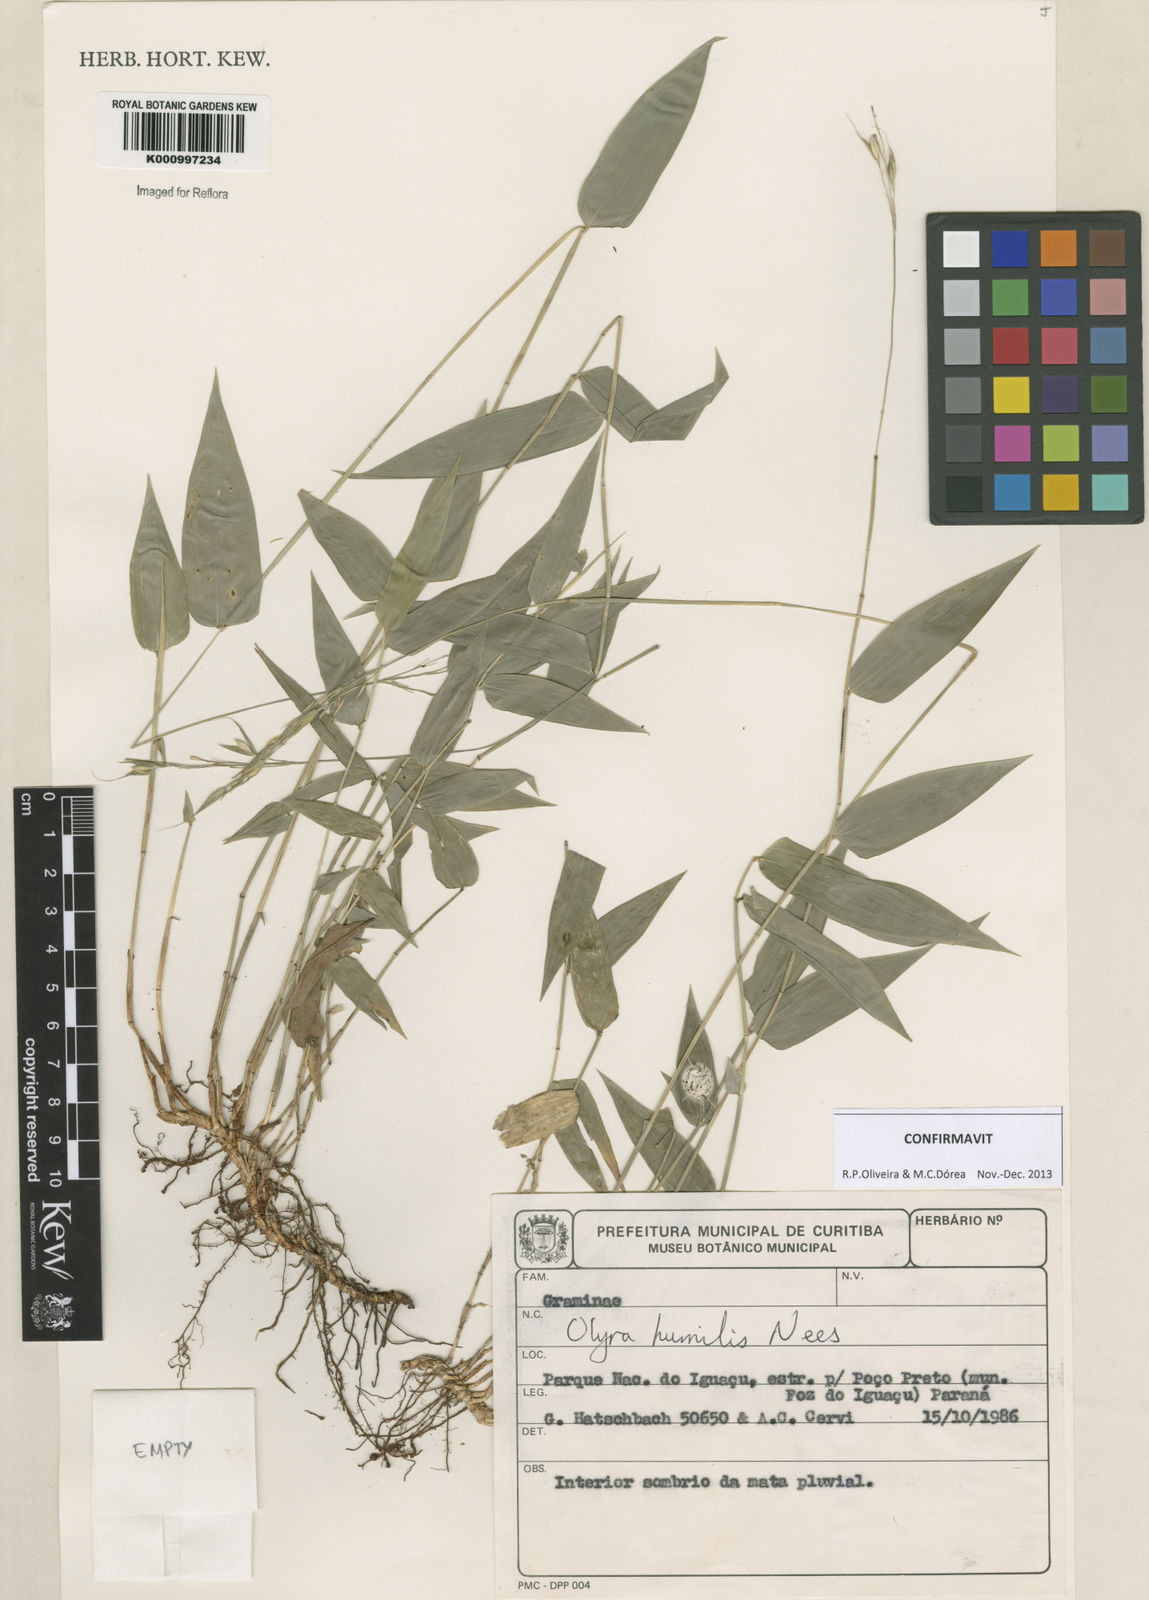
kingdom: Plantae
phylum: Tracheophyta
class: Liliopsida
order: Poales
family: Poaceae
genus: Olyra
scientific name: Olyra humilis
